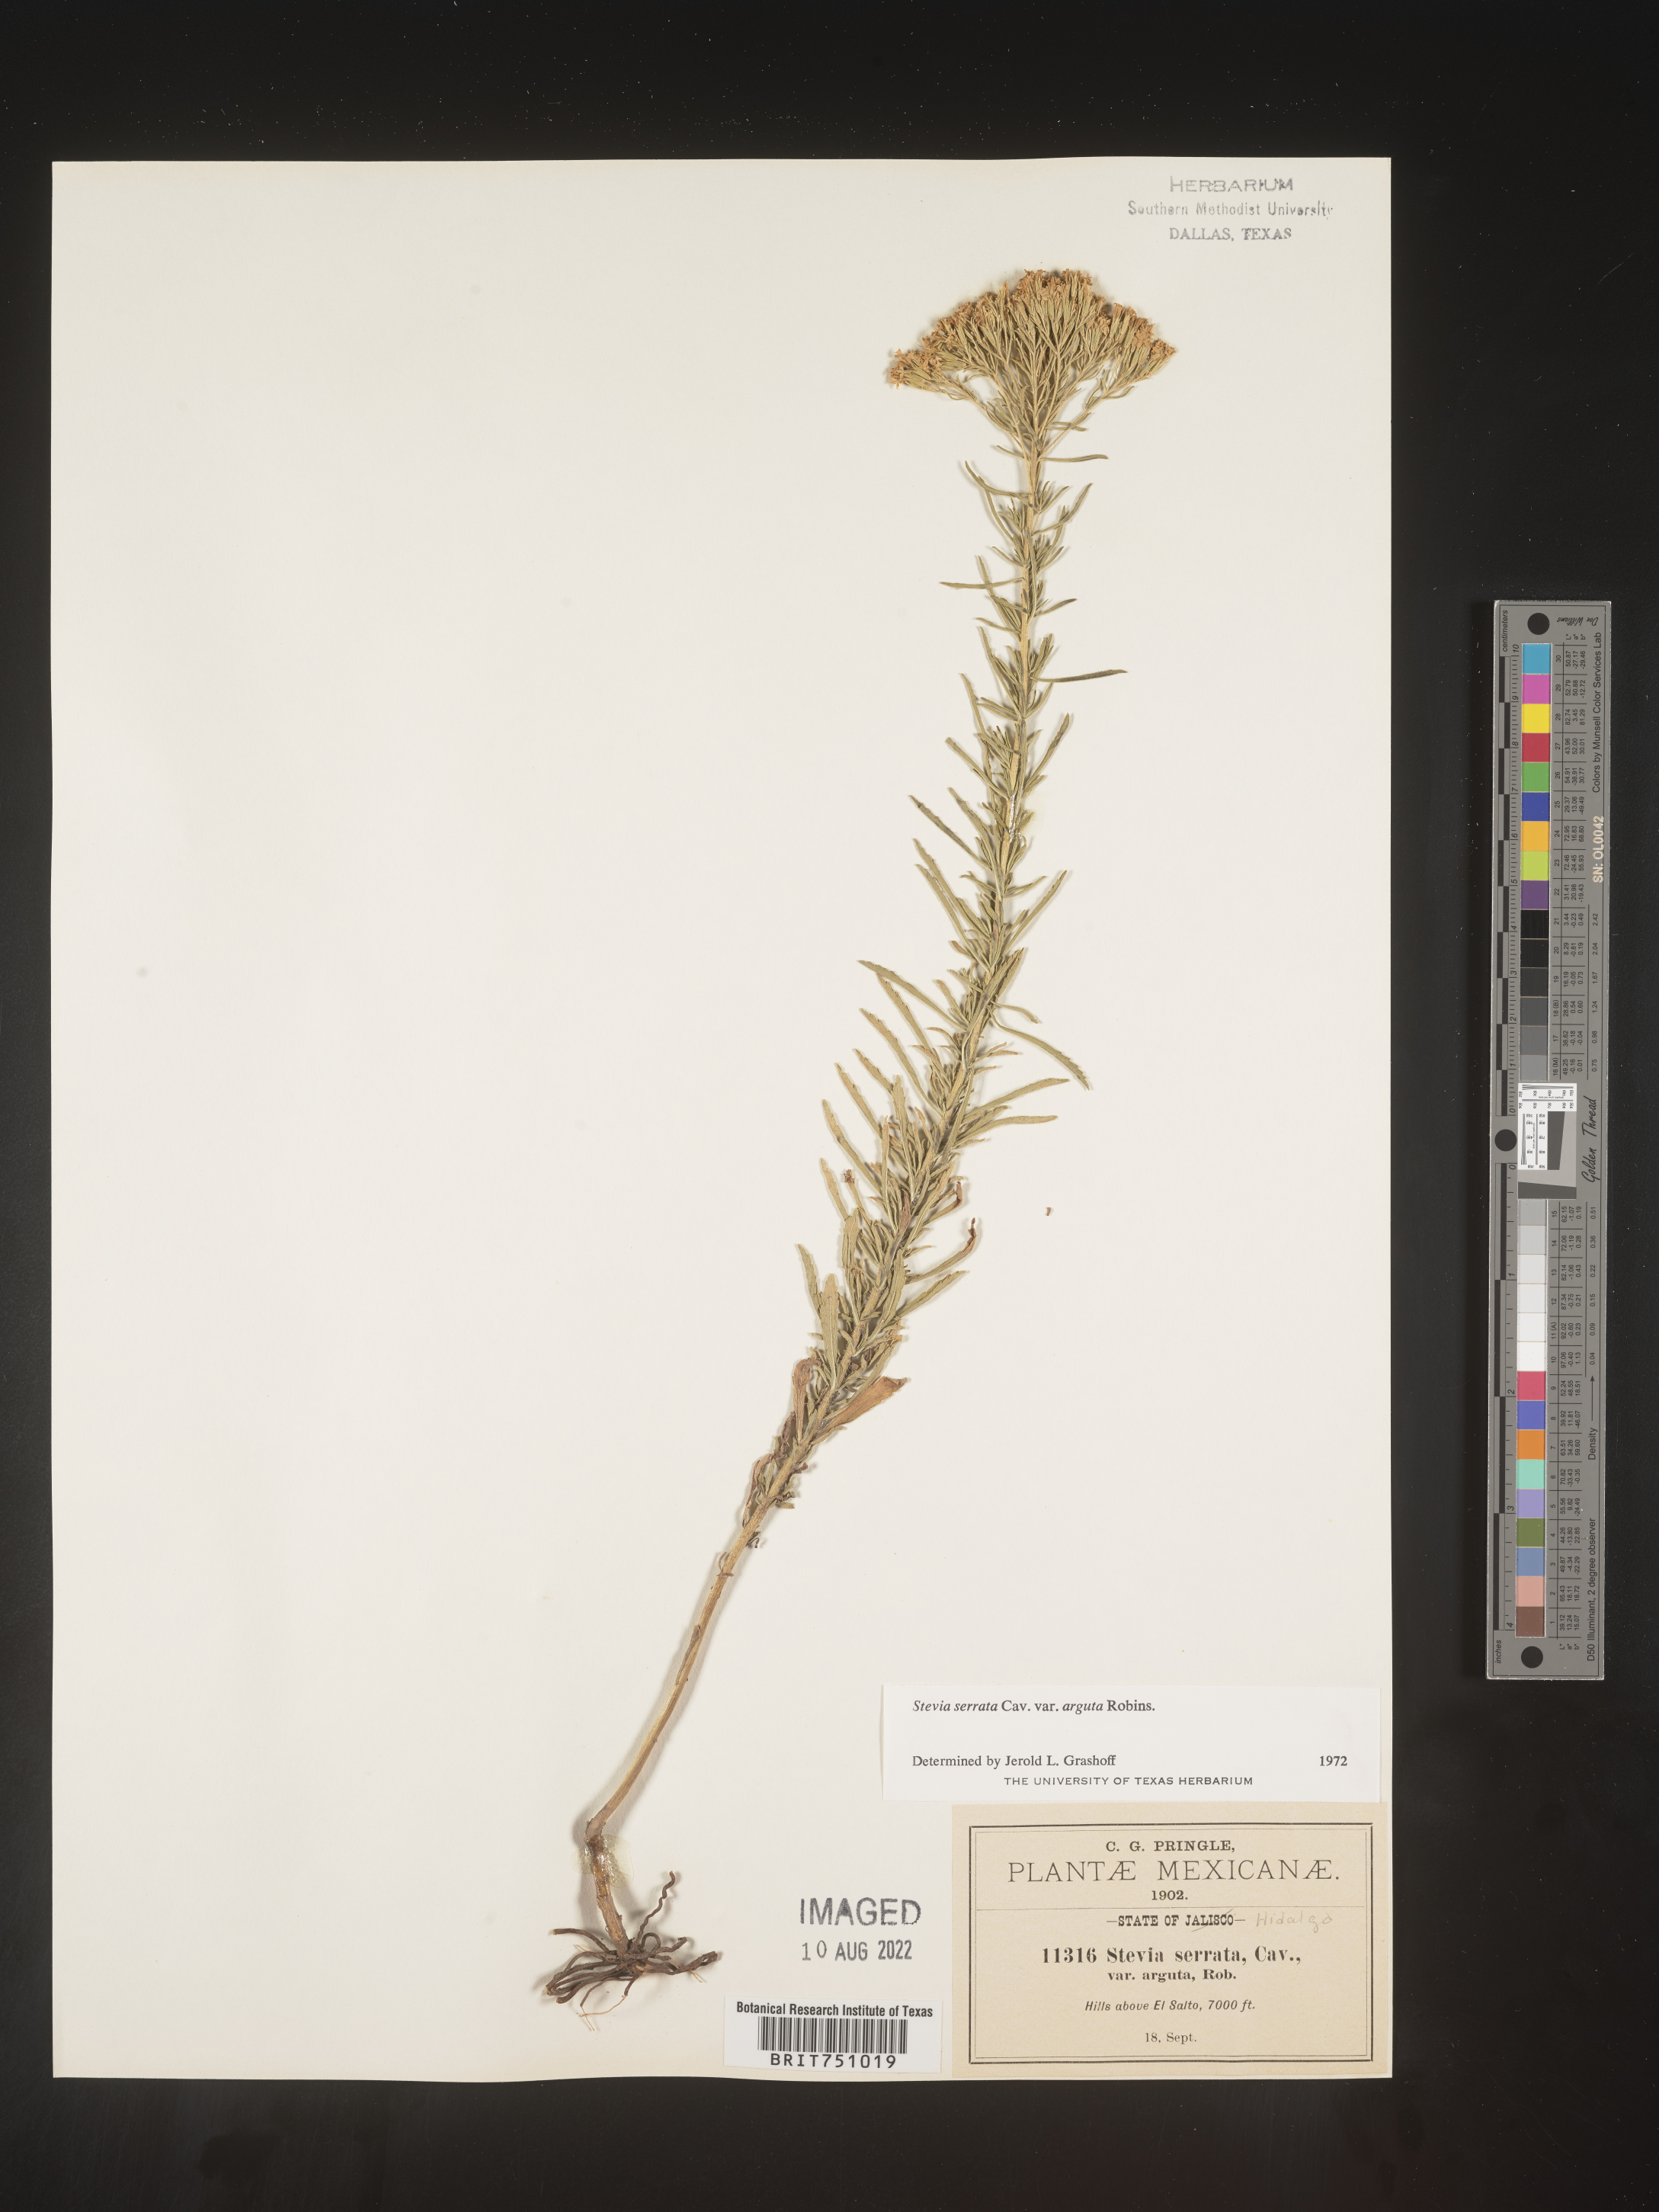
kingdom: Plantae
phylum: Tracheophyta
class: Magnoliopsida
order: Asterales
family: Asteraceae
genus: Stevia
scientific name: Stevia serrata
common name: Sawtooth candyleaf
